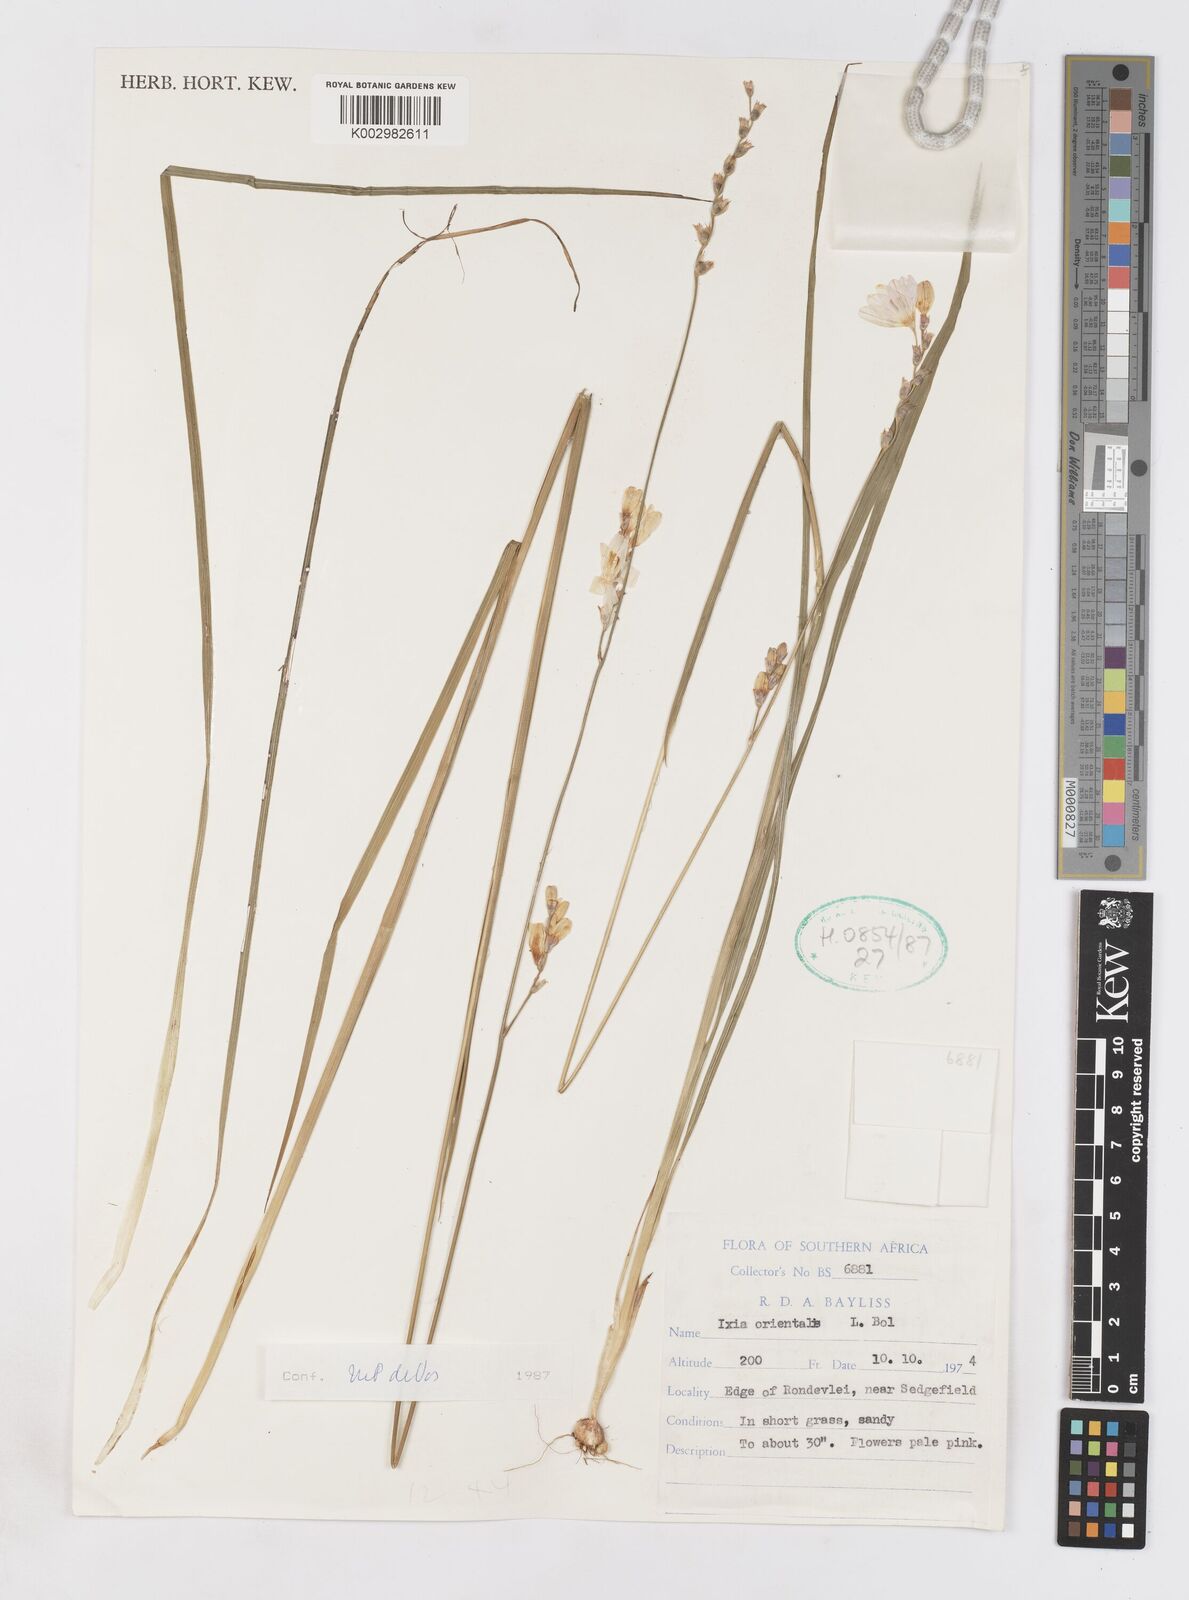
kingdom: Plantae
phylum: Tracheophyta
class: Liliopsida
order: Asparagales
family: Iridaceae
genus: Ixia
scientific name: Ixia orientalis
